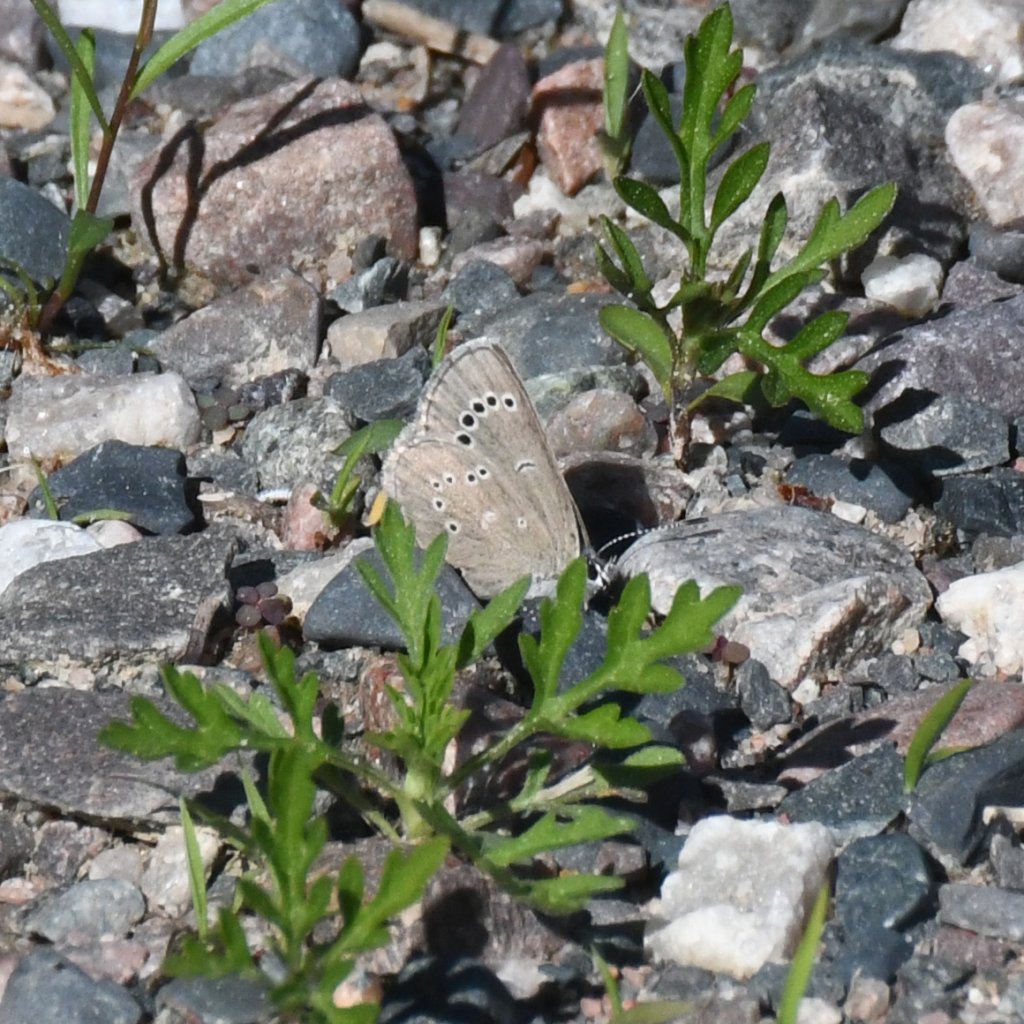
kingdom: Animalia
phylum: Arthropoda
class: Insecta
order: Lepidoptera
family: Lycaenidae
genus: Glaucopsyche
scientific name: Glaucopsyche lygdamus
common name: Silvery Blue
